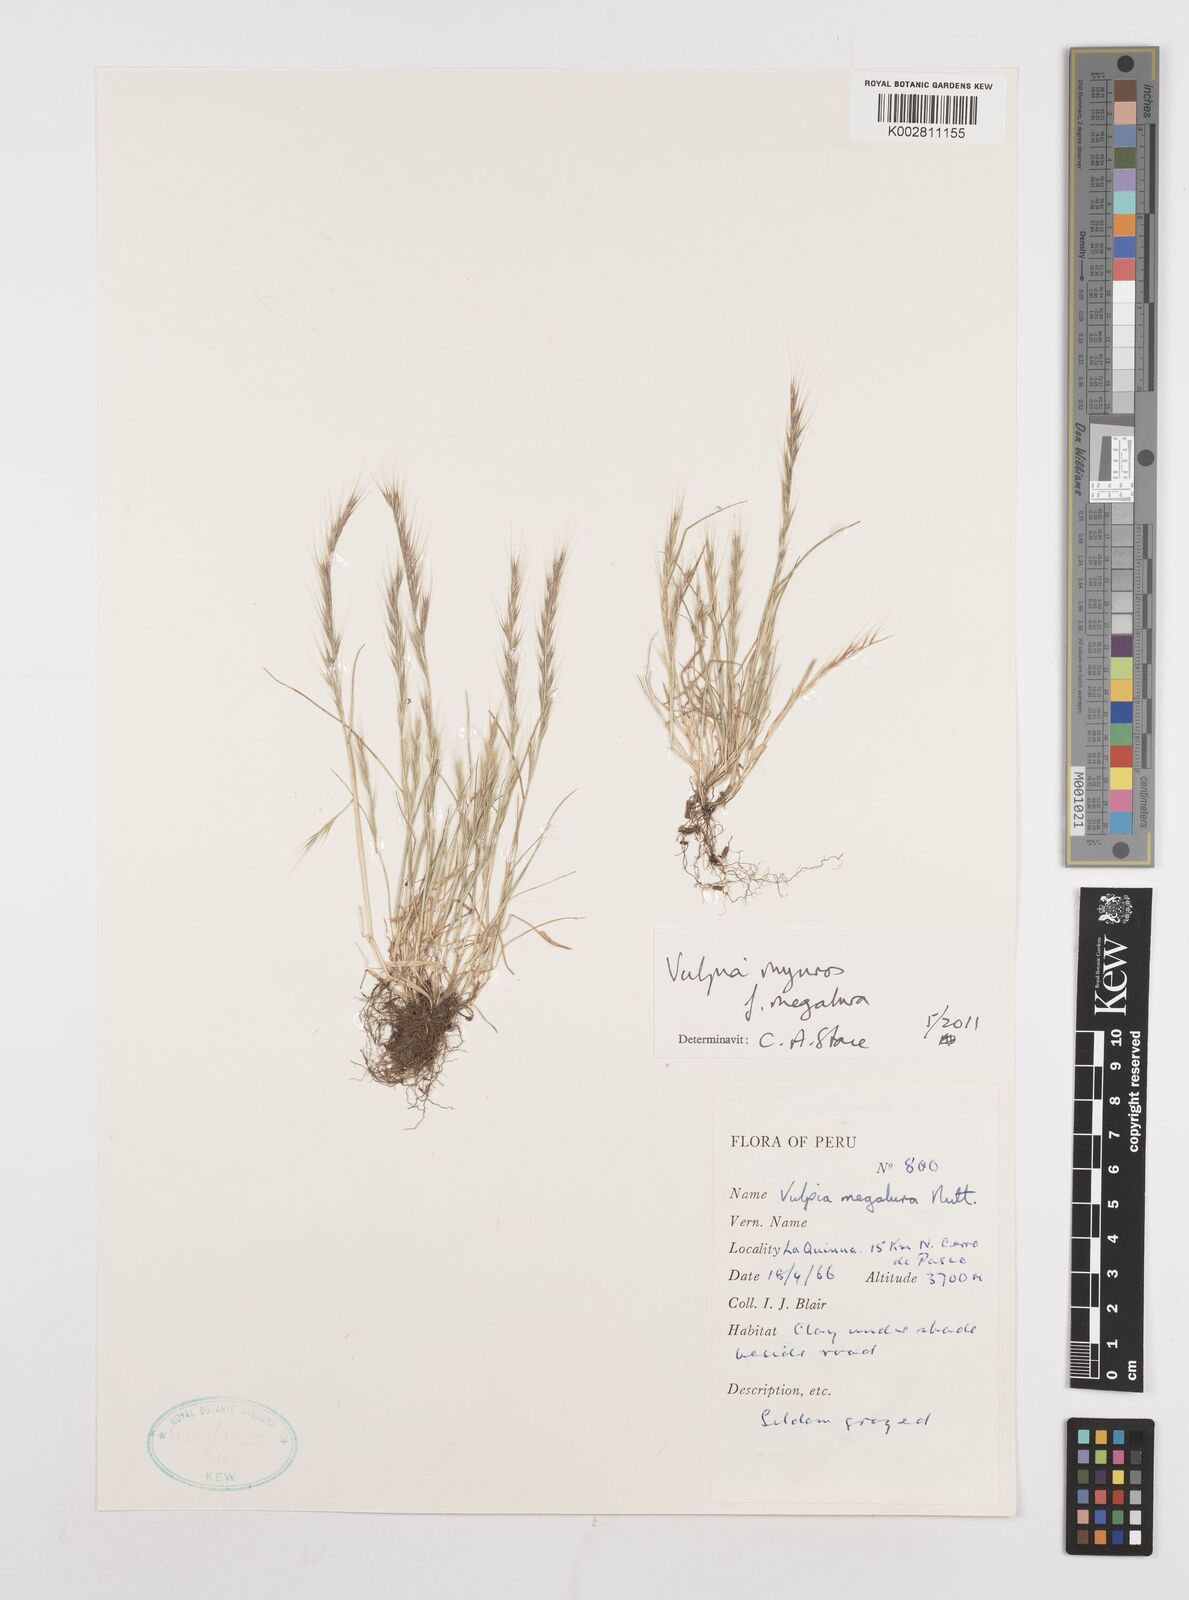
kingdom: Plantae
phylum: Tracheophyta
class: Liliopsida
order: Poales
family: Poaceae
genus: Festuca
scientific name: Festuca myuros
